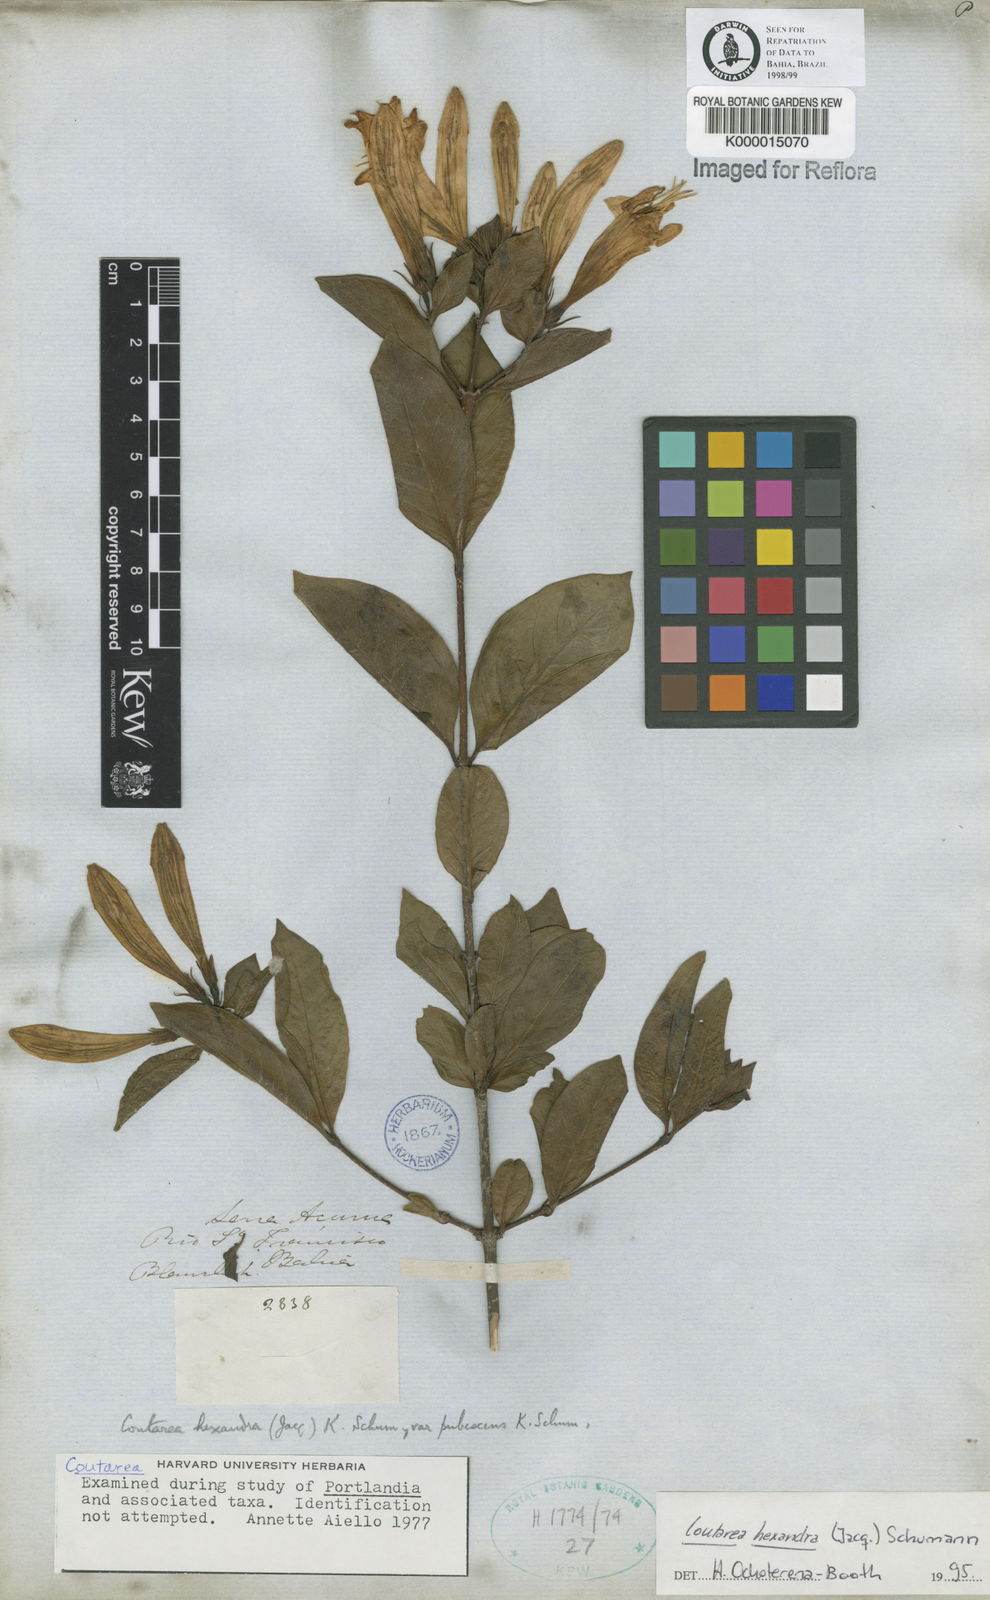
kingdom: Plantae
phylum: Tracheophyta
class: Magnoliopsida
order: Gentianales
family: Rubiaceae
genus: Coutarea
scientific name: Coutarea hexandra
